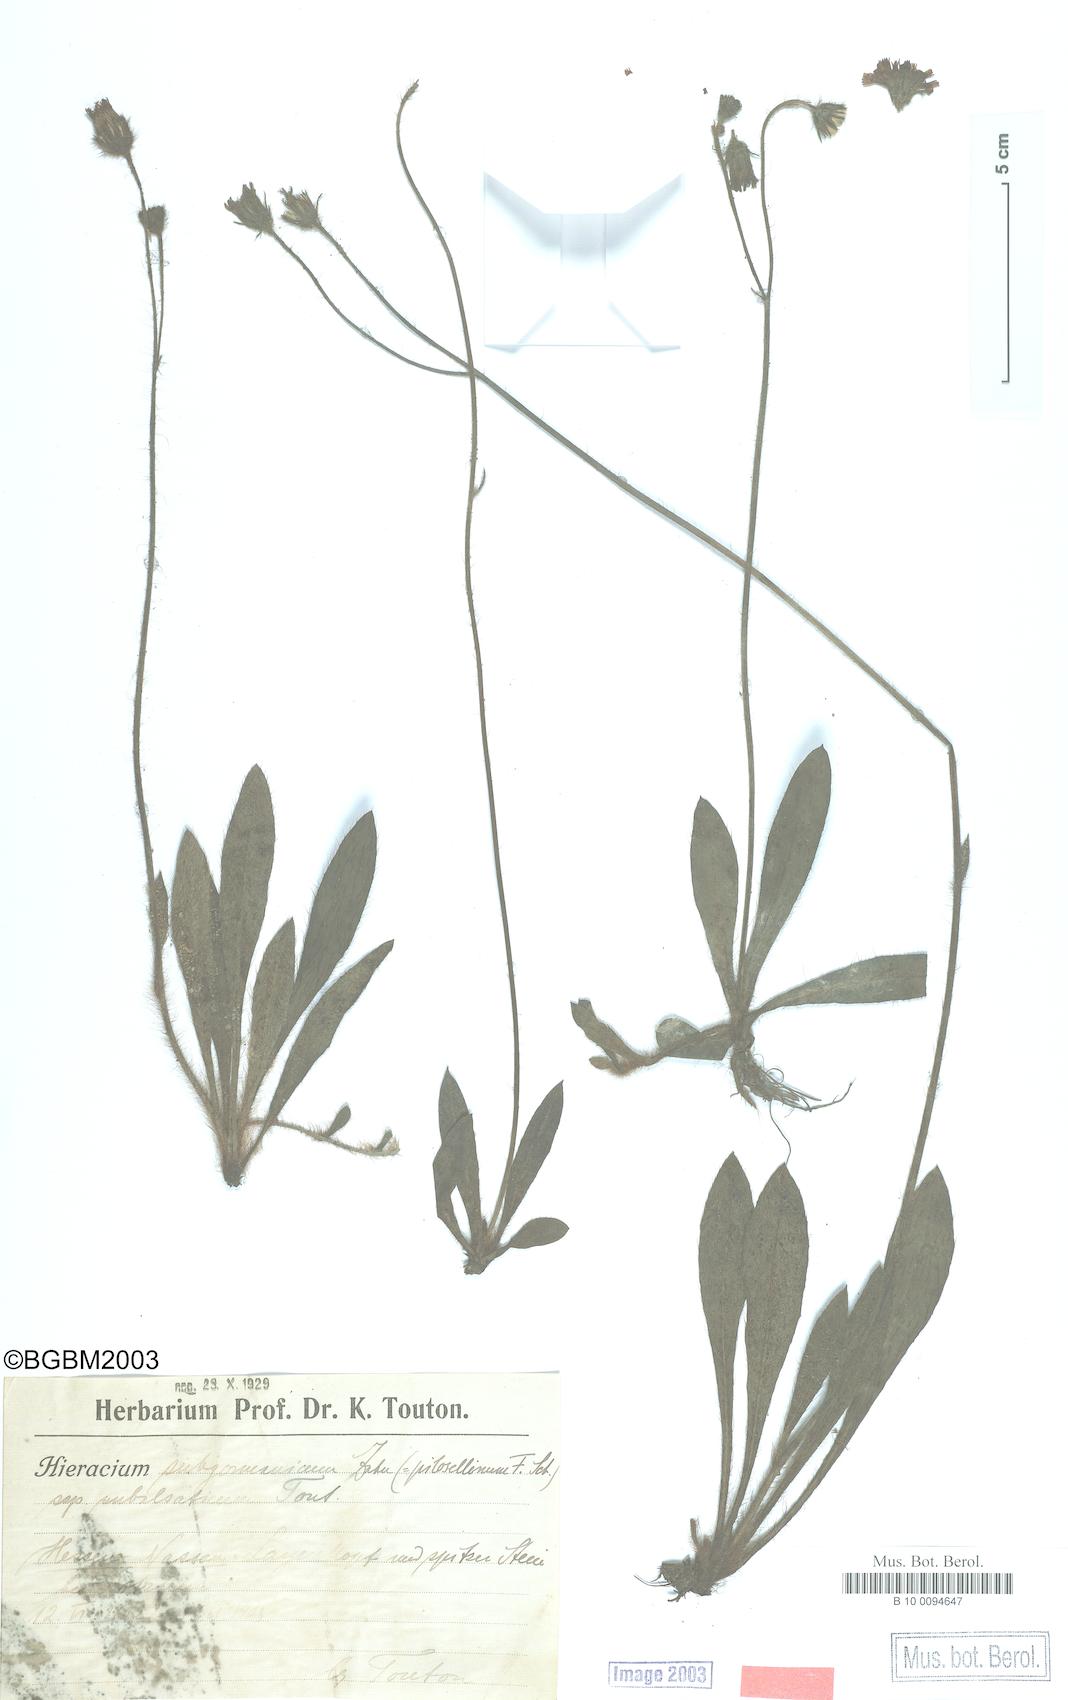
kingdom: Plantae
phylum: Tracheophyta
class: Magnoliopsida
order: Asterales
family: Asteraceae
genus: Pilosella
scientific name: Pilosella pilosellina
